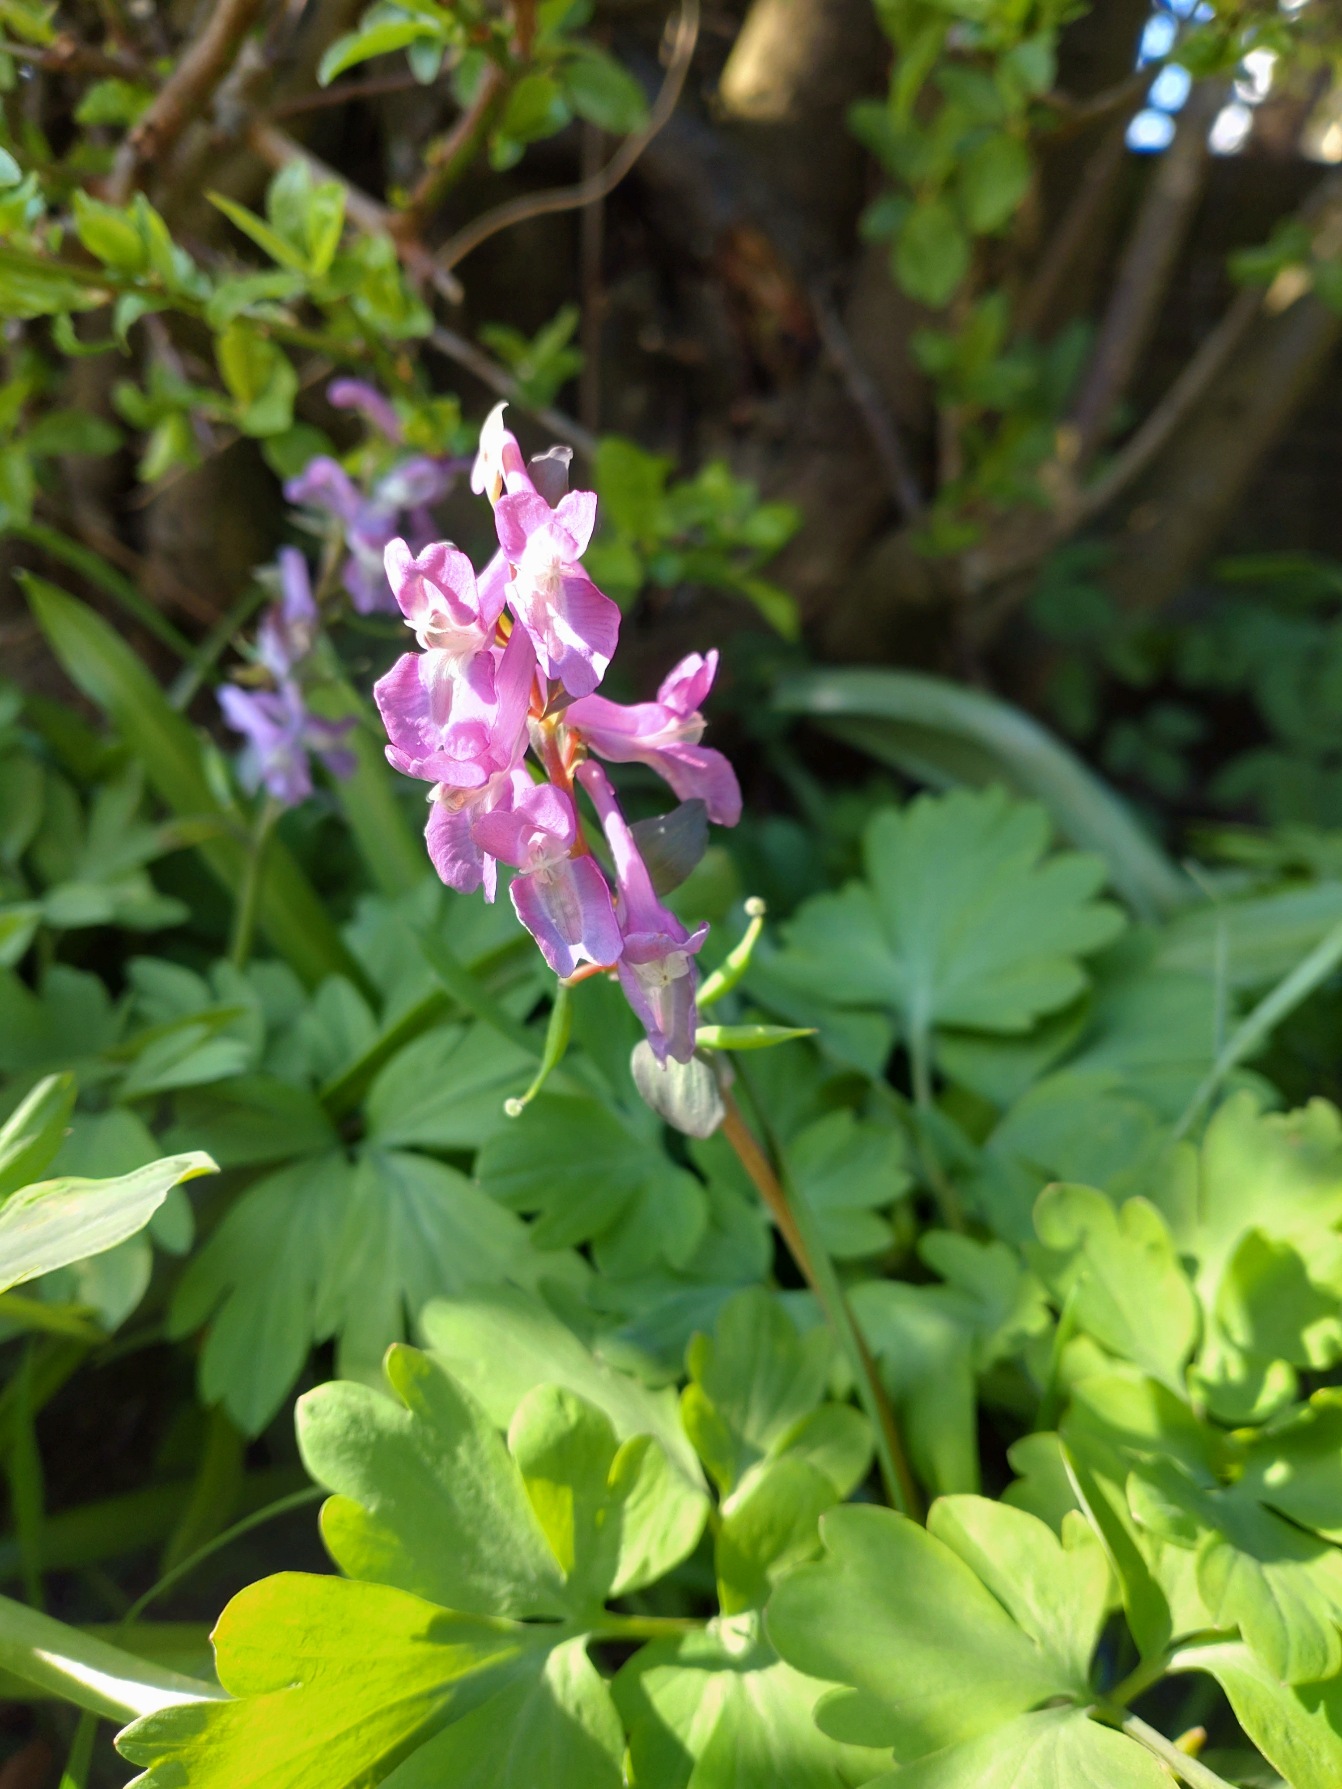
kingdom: Plantae
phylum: Tracheophyta
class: Magnoliopsida
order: Ranunculales
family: Papaveraceae
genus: Corydalis
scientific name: Corydalis cava
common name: Hulrodet lærkespore
